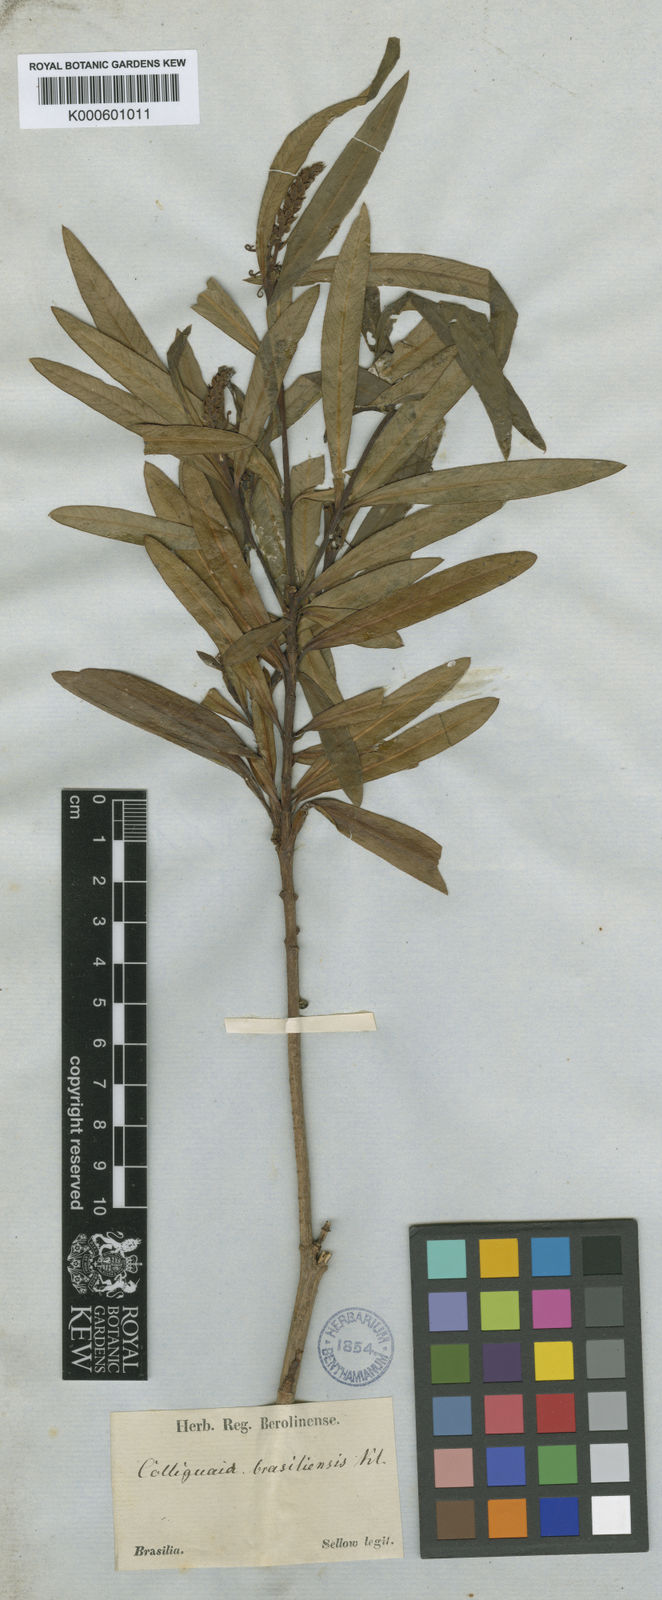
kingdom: Plantae
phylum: Tracheophyta
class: Magnoliopsida
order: Malpighiales
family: Euphorbiaceae
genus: Colliguaja
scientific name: Colliguaja brasillensis
